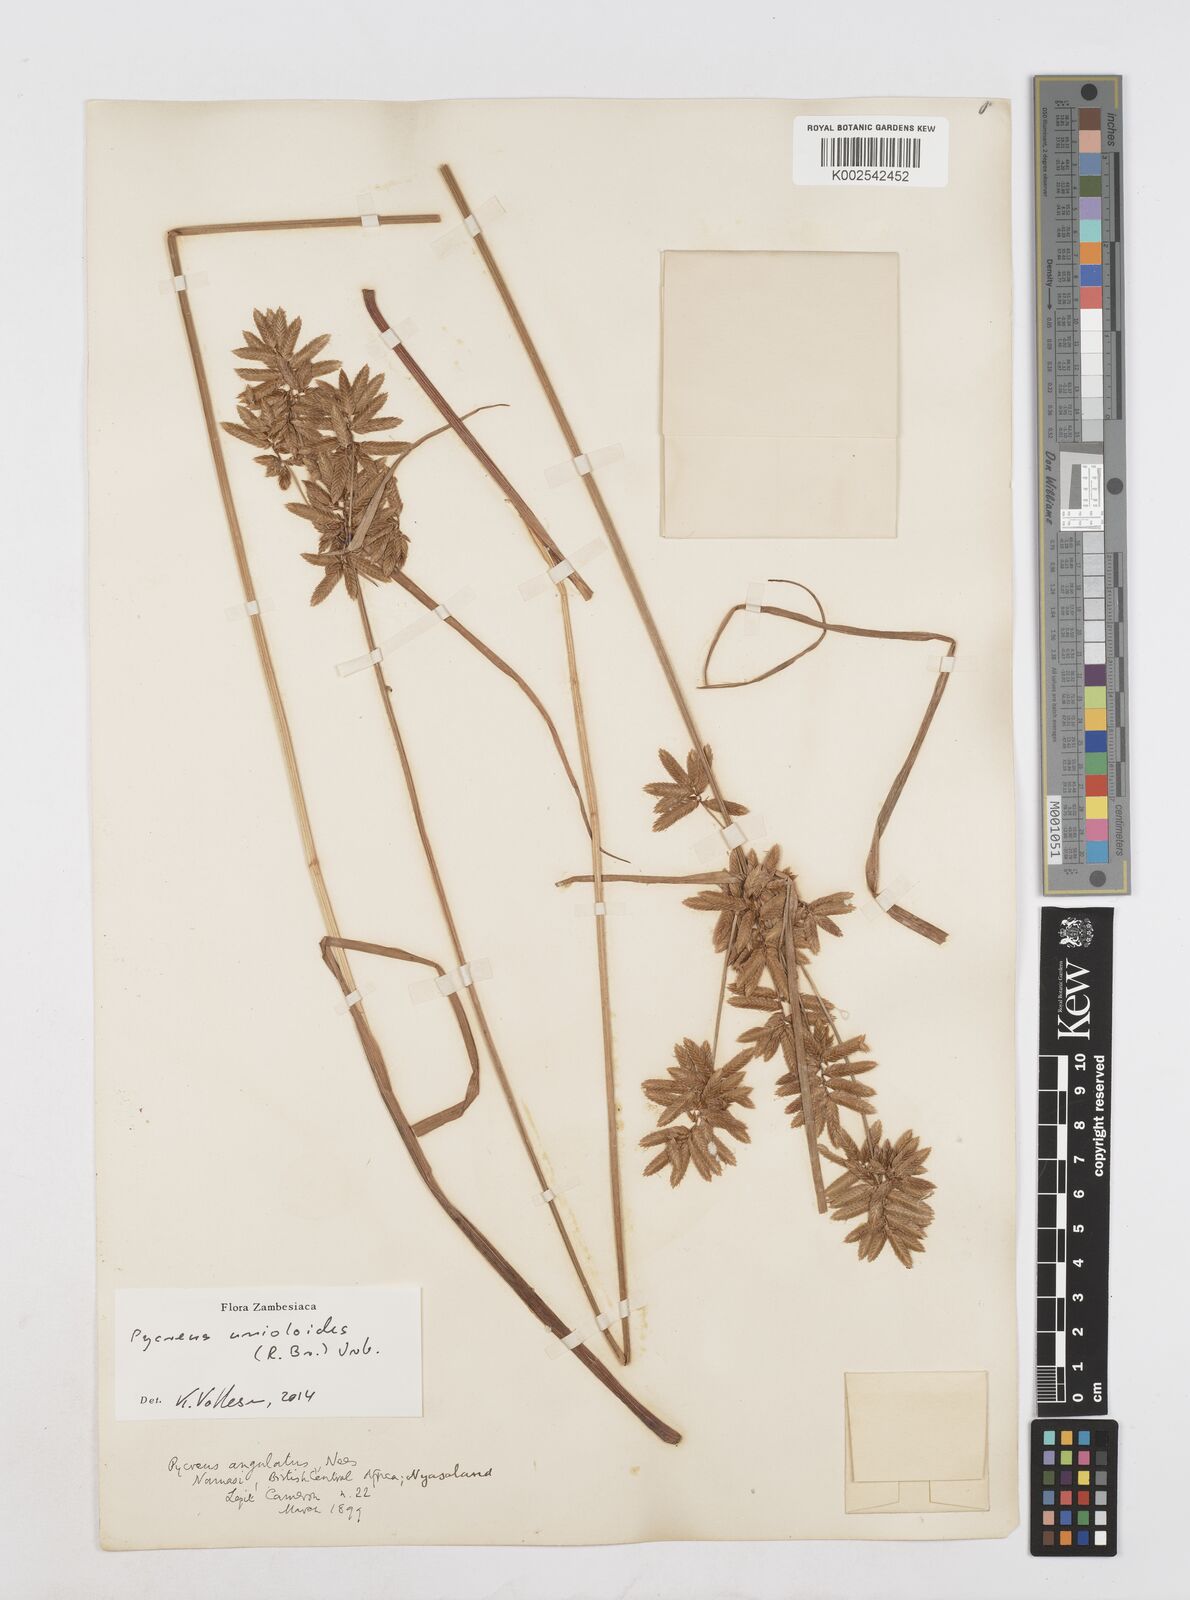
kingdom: Plantae
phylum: Tracheophyta
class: Liliopsida
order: Poales
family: Cyperaceae
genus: Cyperus
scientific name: Cyperus unioloides
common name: Uniola flatsedge
